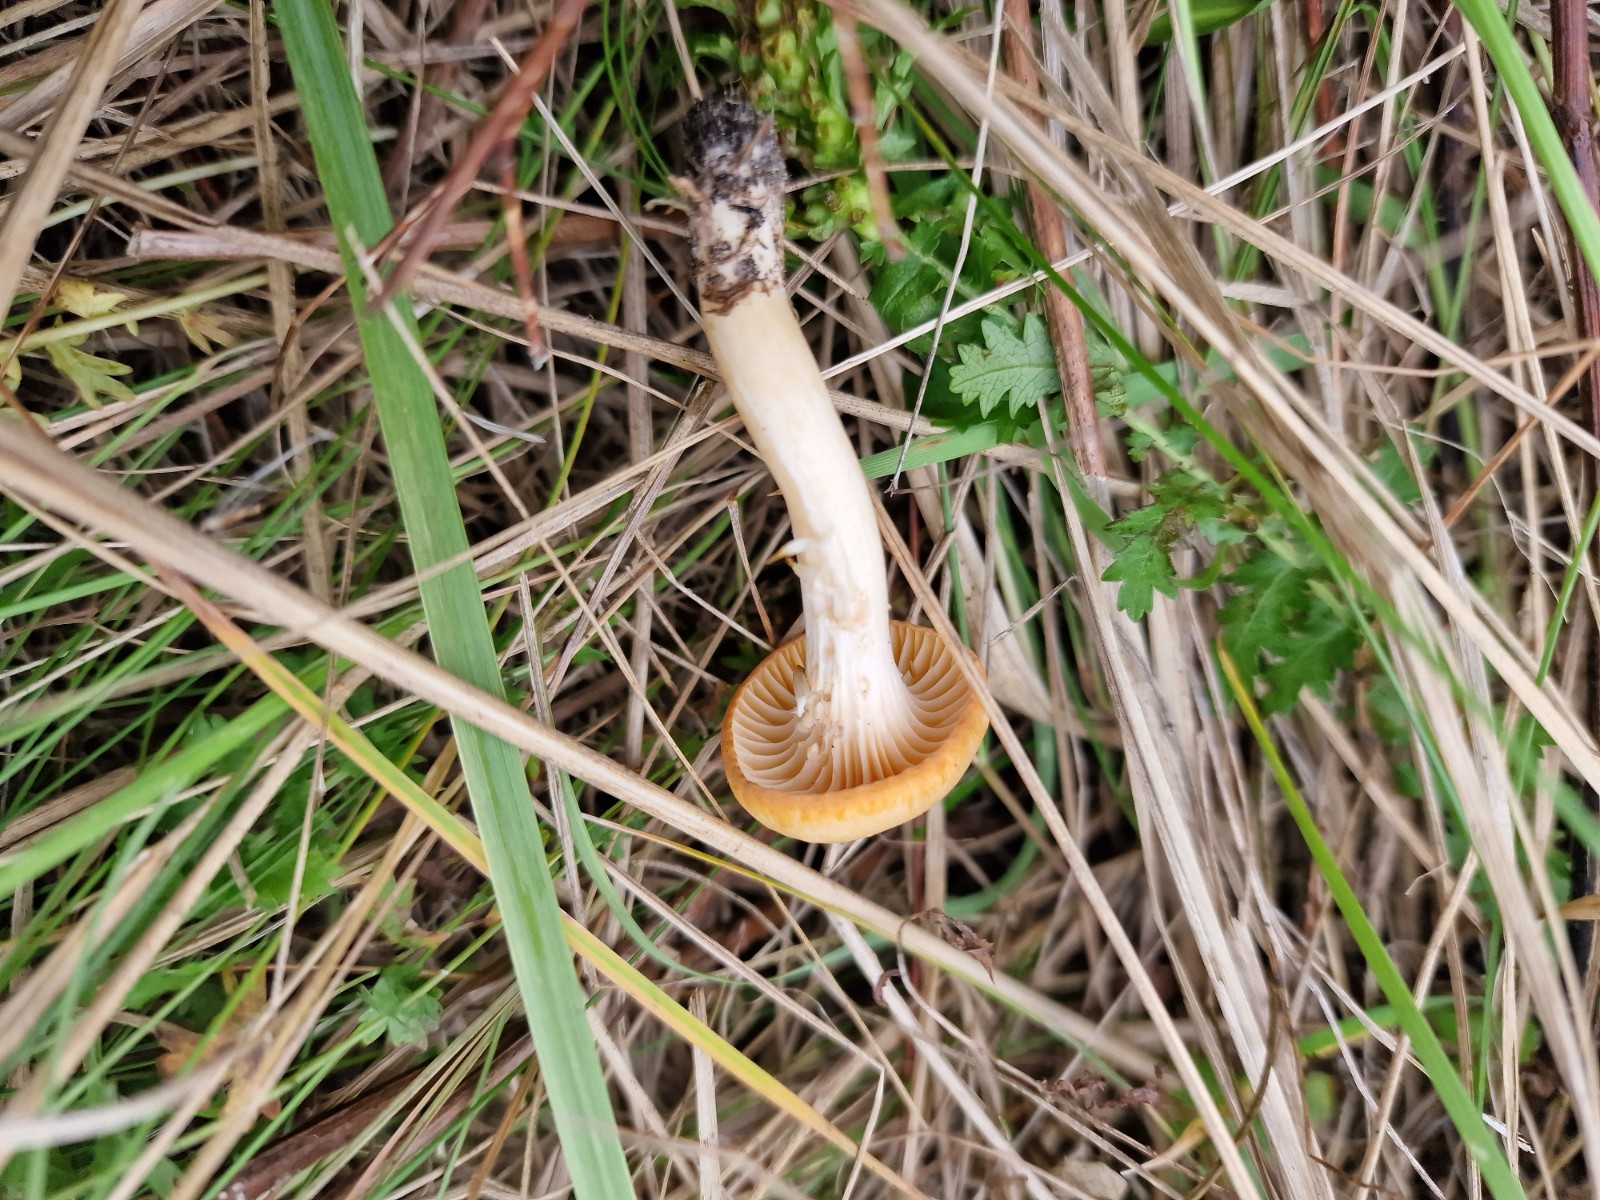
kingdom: Fungi
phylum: Basidiomycota
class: Agaricomycetes
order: Agaricales
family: Hygrophoraceae
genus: Cuphophyllus
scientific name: Cuphophyllus pratensis
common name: eng-vokshat
